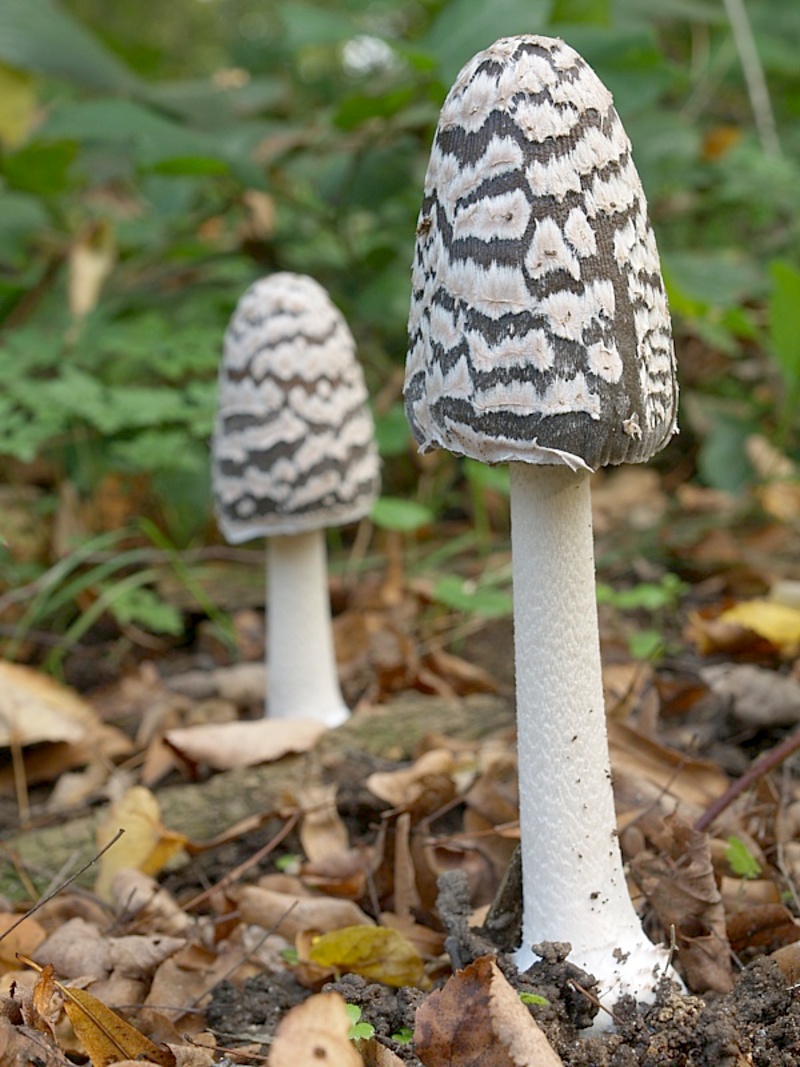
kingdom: Fungi
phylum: Basidiomycota
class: Agaricomycetes
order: Agaricales
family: Psathyrellaceae
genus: Coprinopsis
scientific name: Coprinopsis picacea
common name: Magpie inkcap
